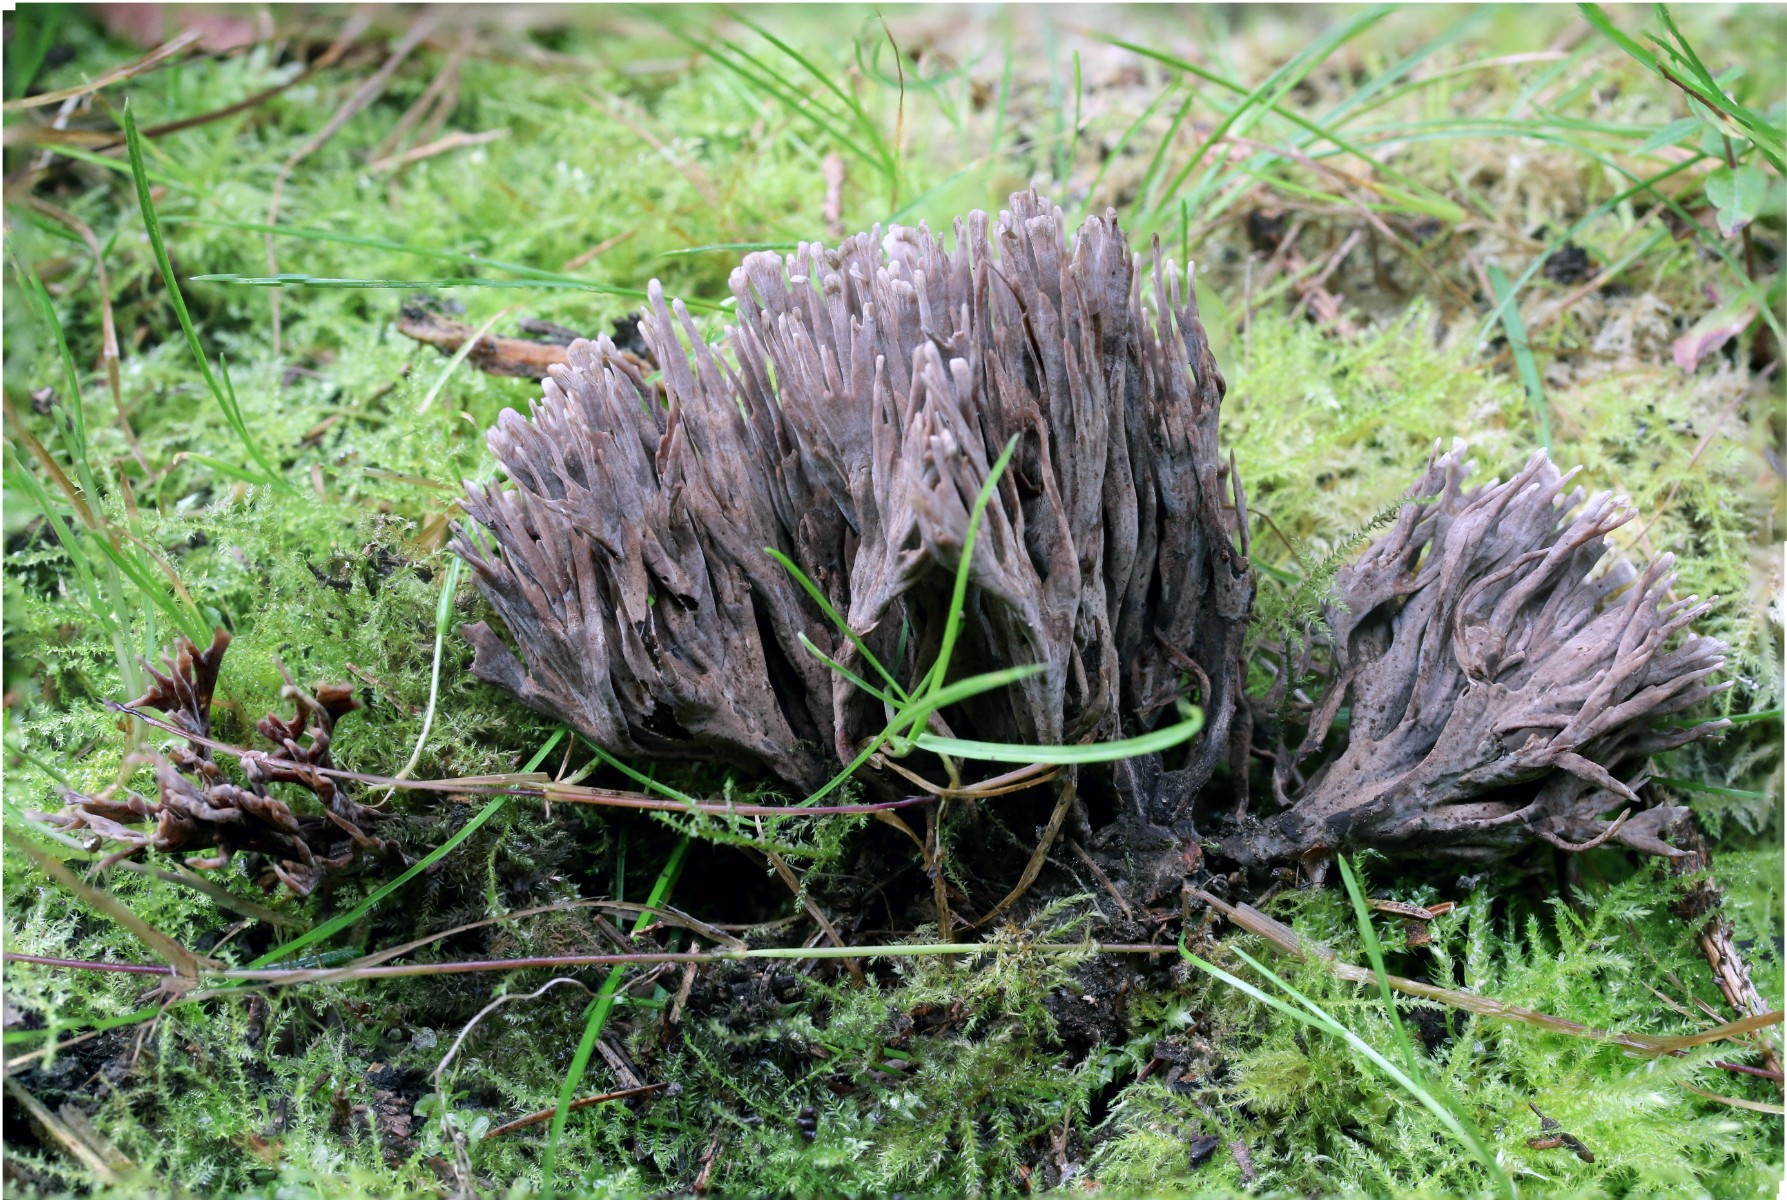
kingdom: Fungi
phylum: Basidiomycota
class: Agaricomycetes
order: Thelephorales
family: Thelephoraceae
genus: Thelephora
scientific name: Thelephora palmata
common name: grenet frynsesvamp
